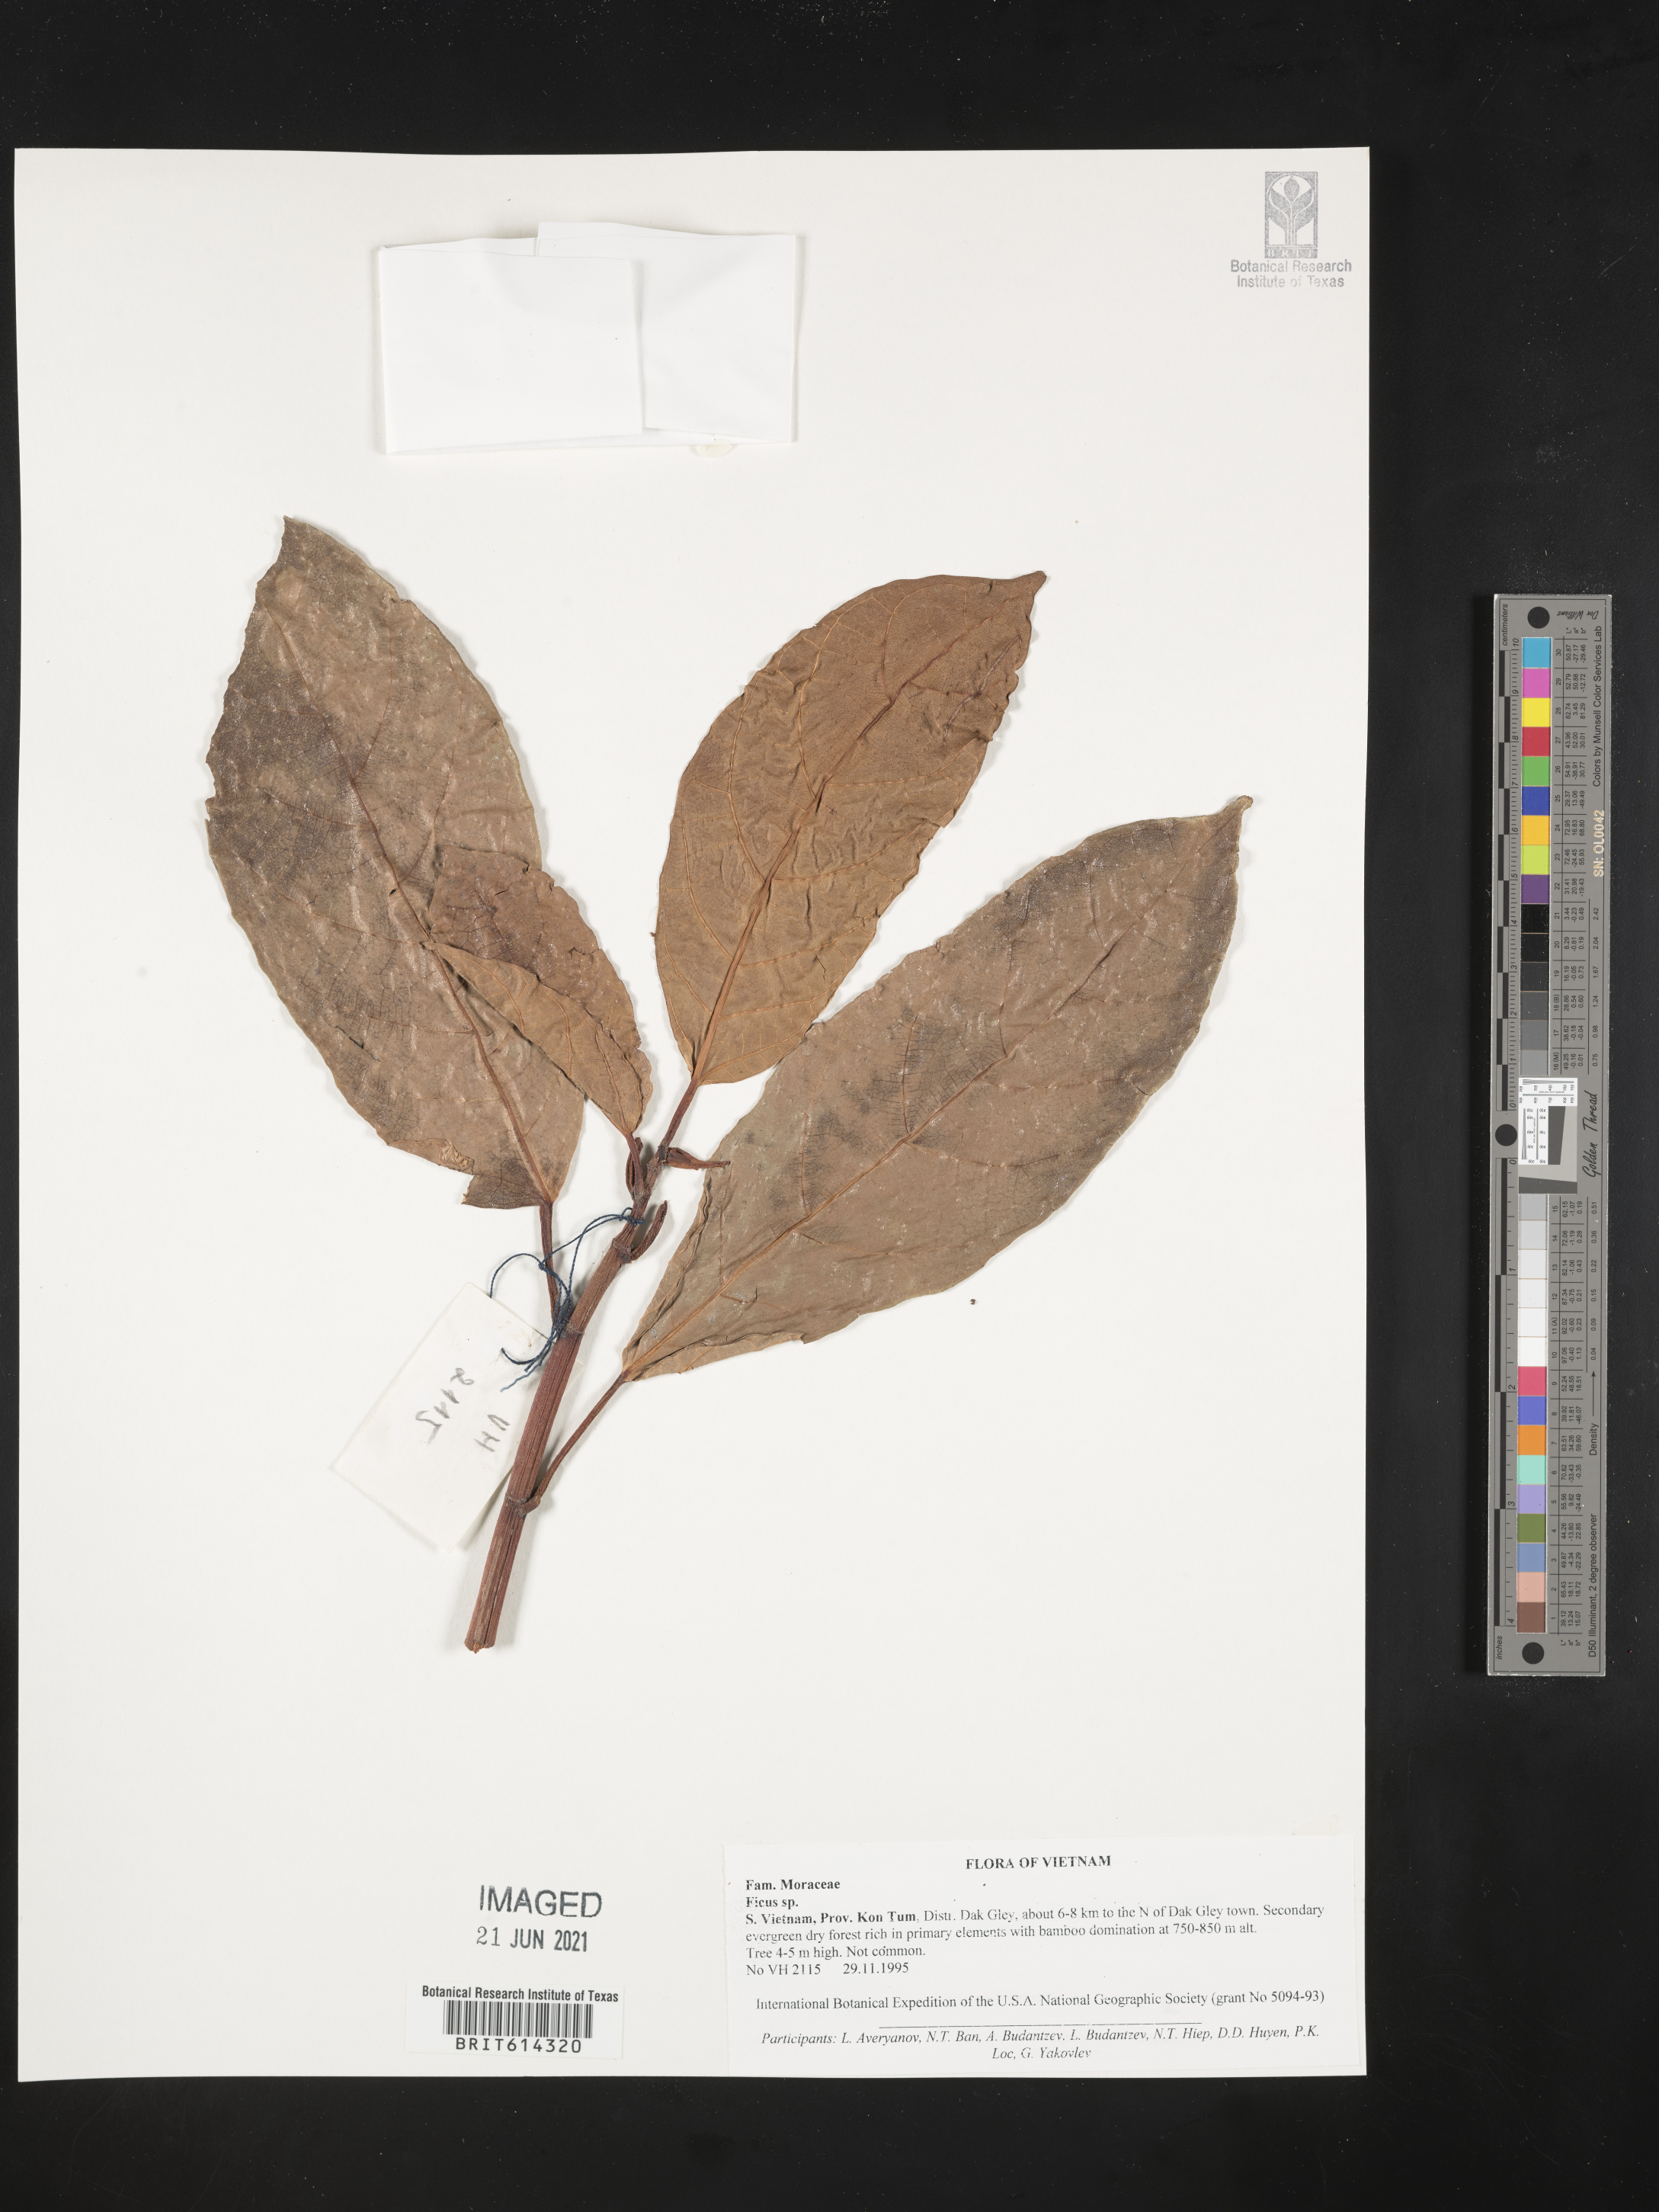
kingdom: Plantae
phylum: Tracheophyta
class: Magnoliopsida
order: Rosales
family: Moraceae
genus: Ficus
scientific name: Ficus
